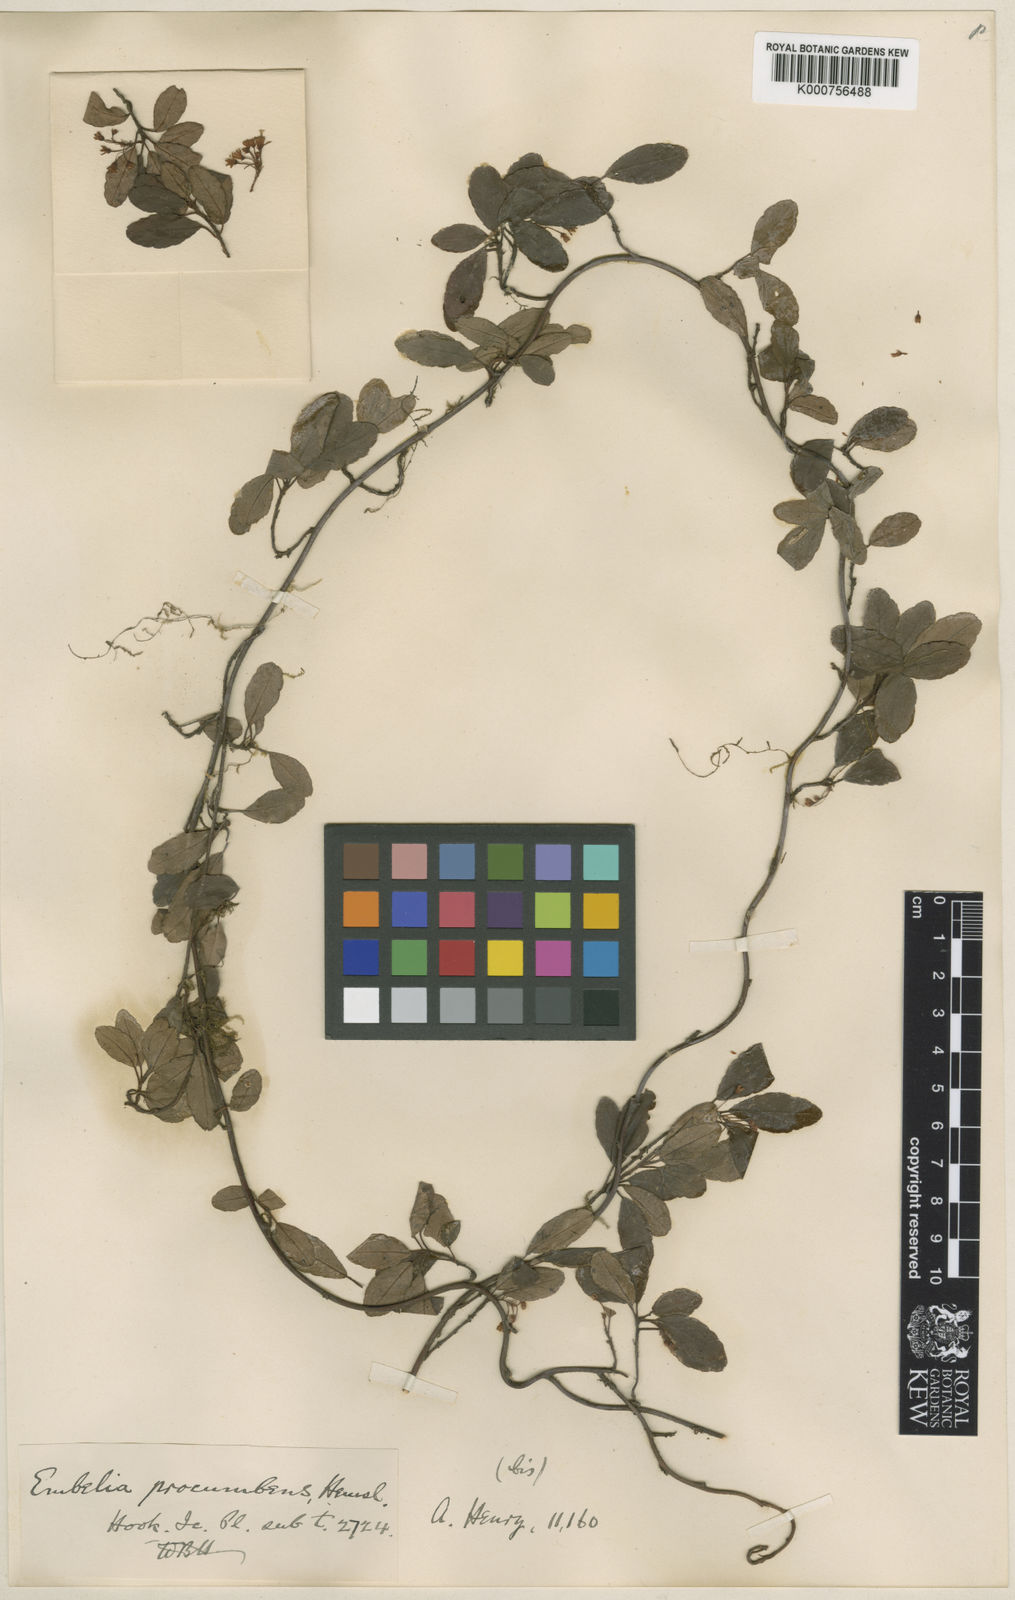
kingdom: Plantae
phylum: Tracheophyta
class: Magnoliopsida
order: Ericales
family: Primulaceae
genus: Embelia
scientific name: Embelia procumbens
